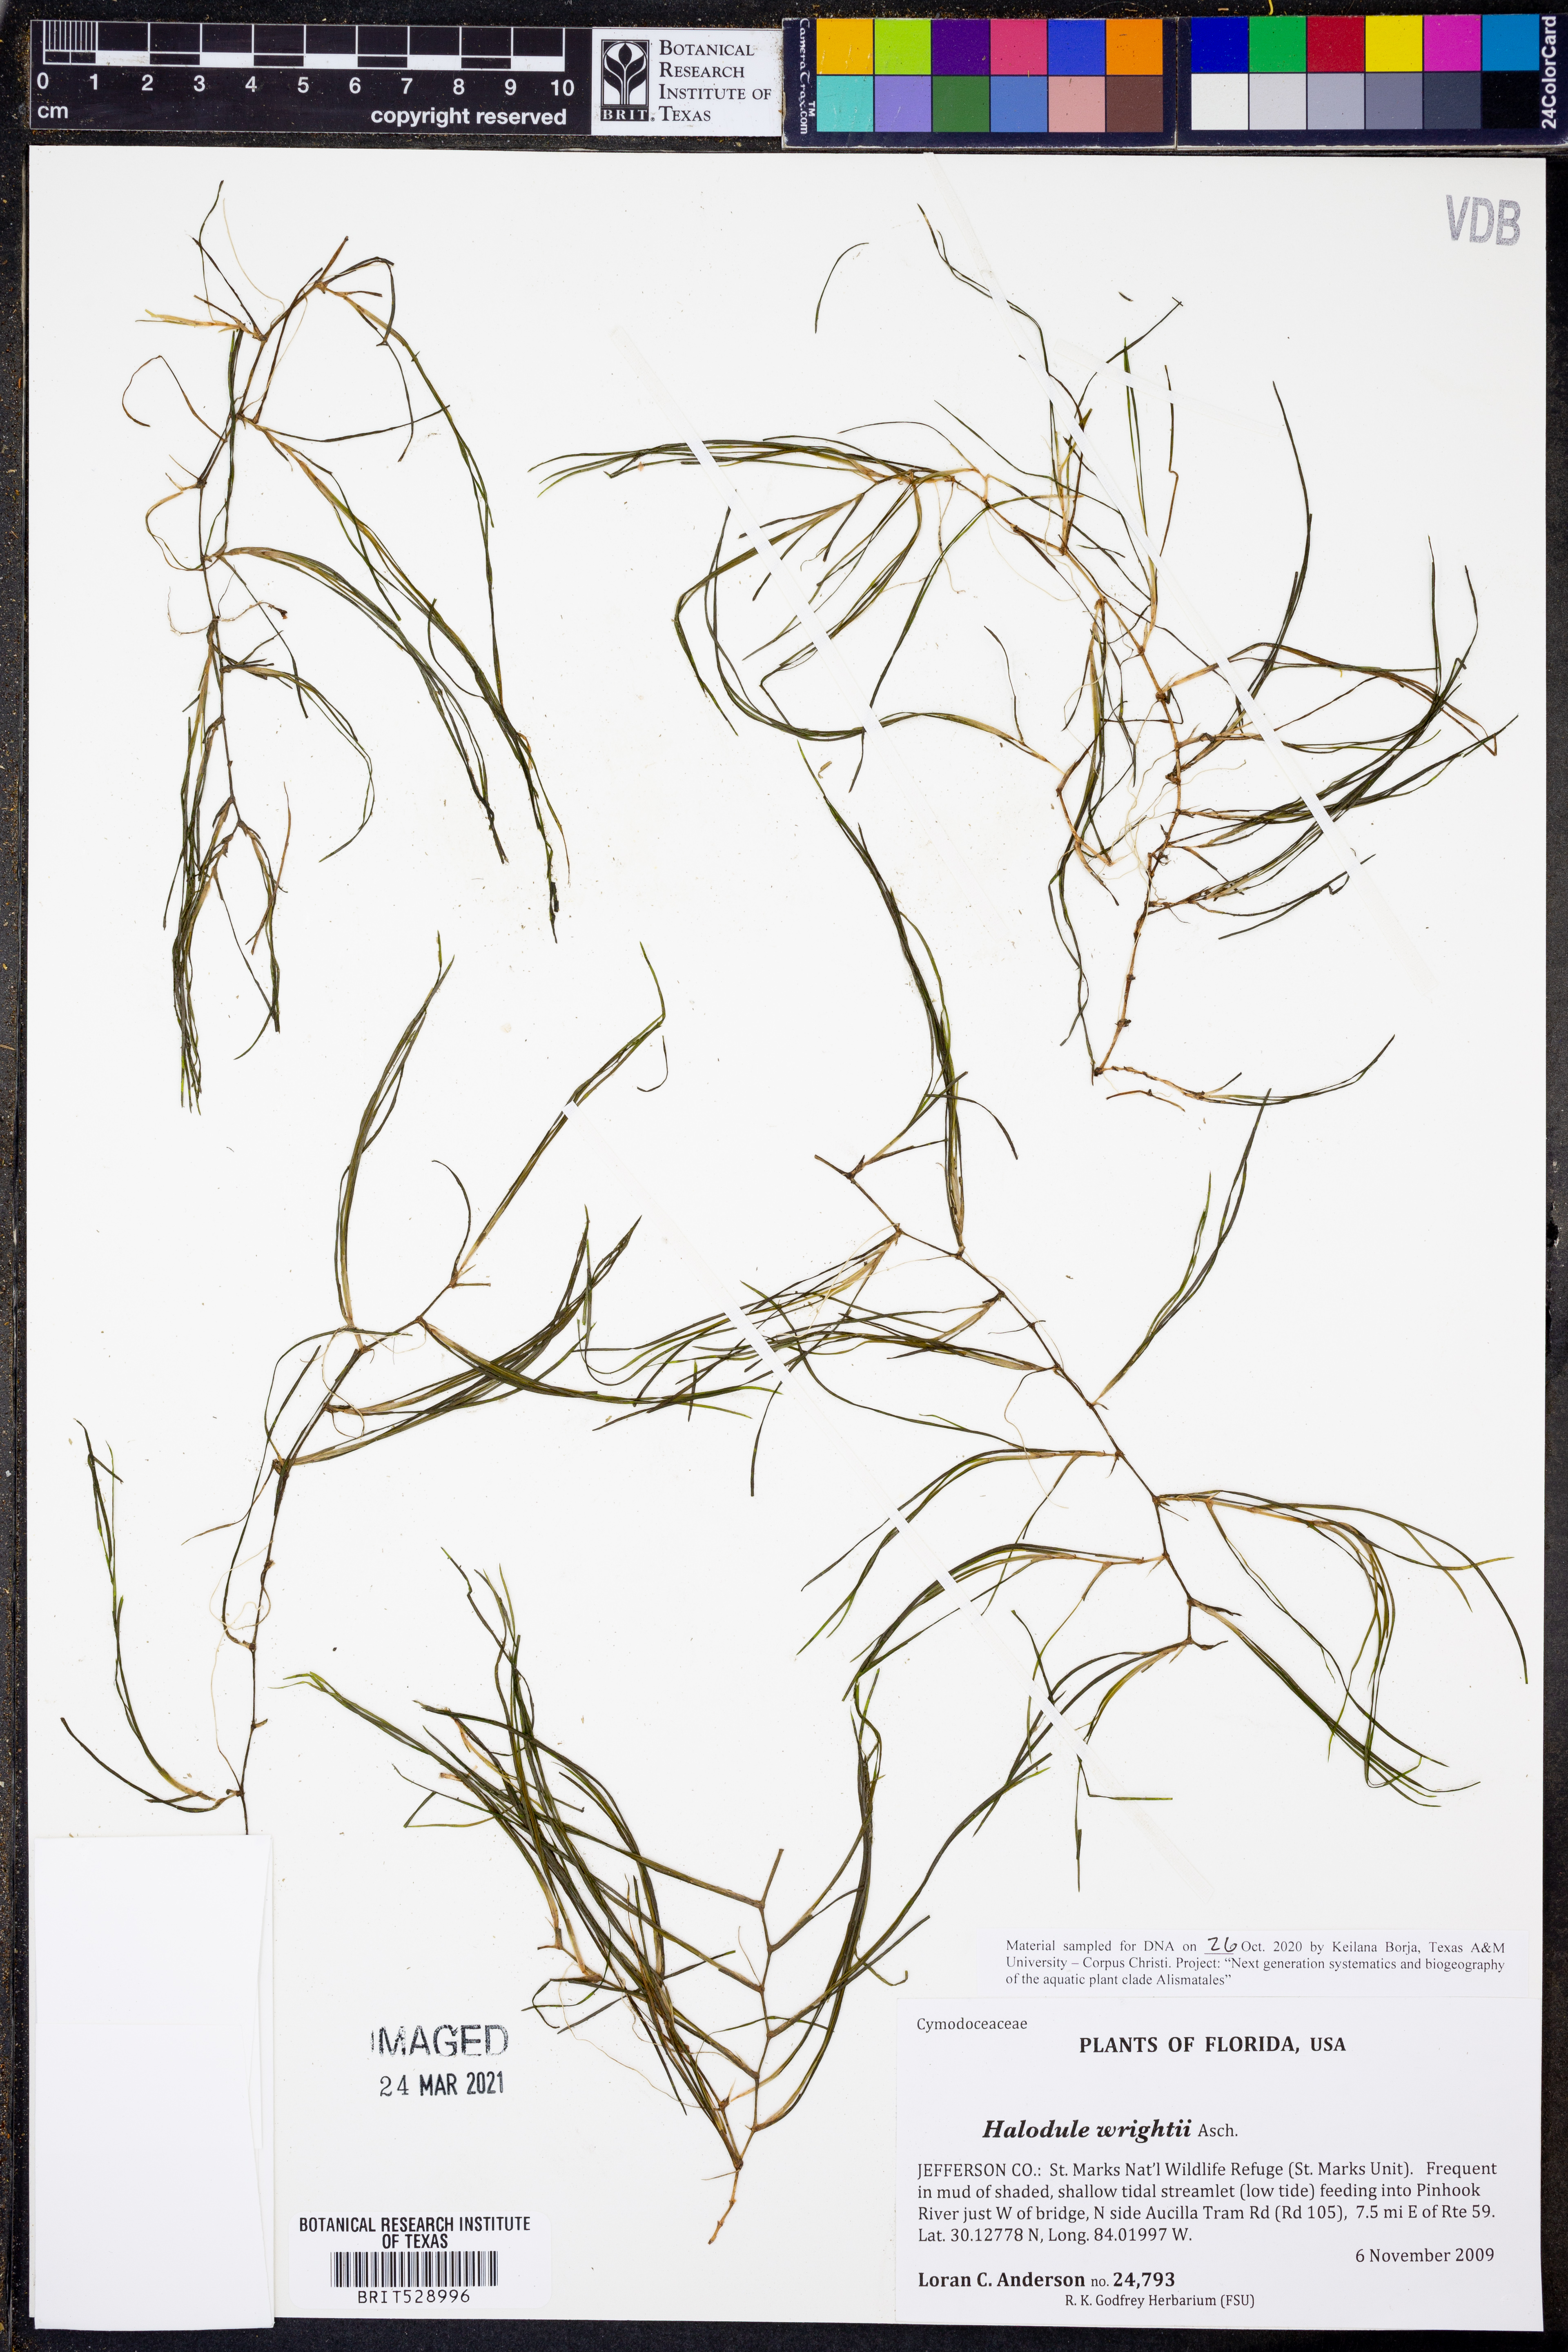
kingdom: Plantae
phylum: Tracheophyta
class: Liliopsida
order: Alismatales
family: Cymodoceaceae
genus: Halodule
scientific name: Halodule wrightii
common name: Shoalgrass
